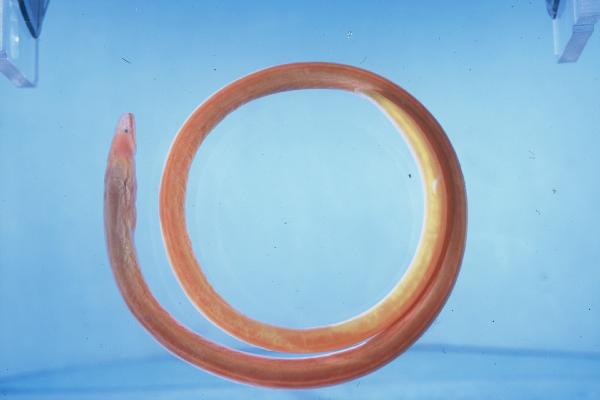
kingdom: Animalia
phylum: Chordata
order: Anguilliformes
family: Moringuidae
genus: Moringua
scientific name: Moringua
